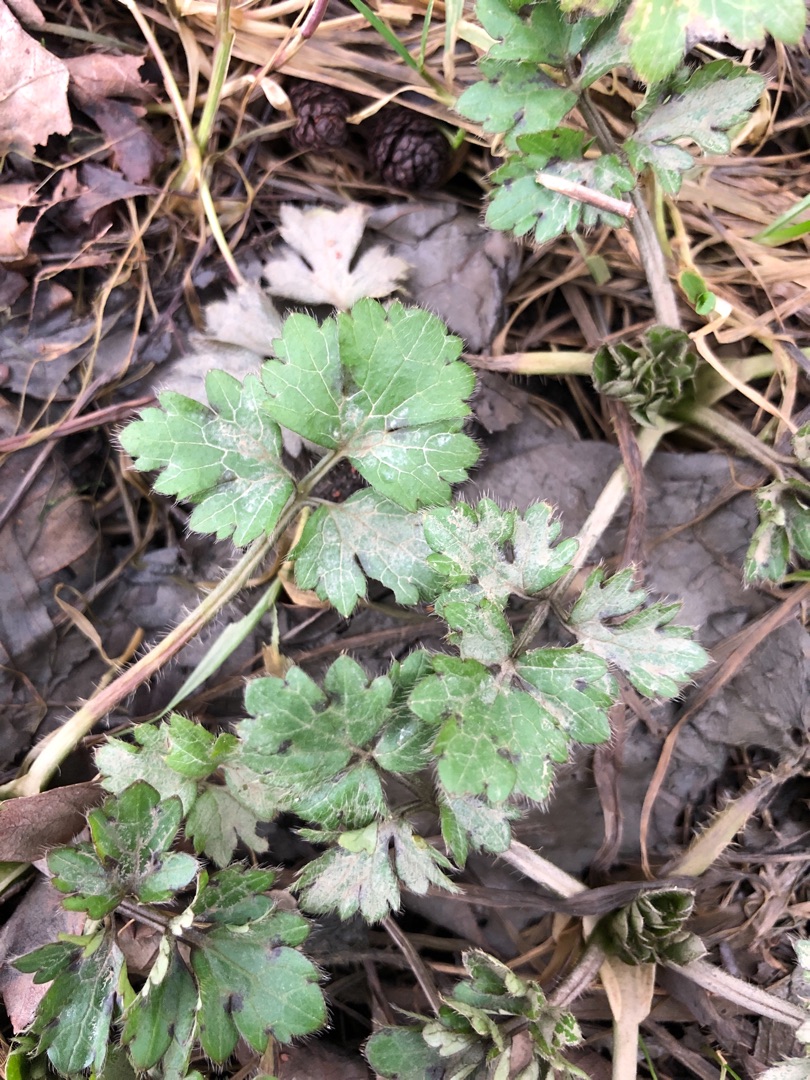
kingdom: Plantae
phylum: Tracheophyta
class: Magnoliopsida
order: Ranunculales
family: Ranunculaceae
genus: Ranunculus
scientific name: Ranunculus repens
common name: Lav ranunkel
